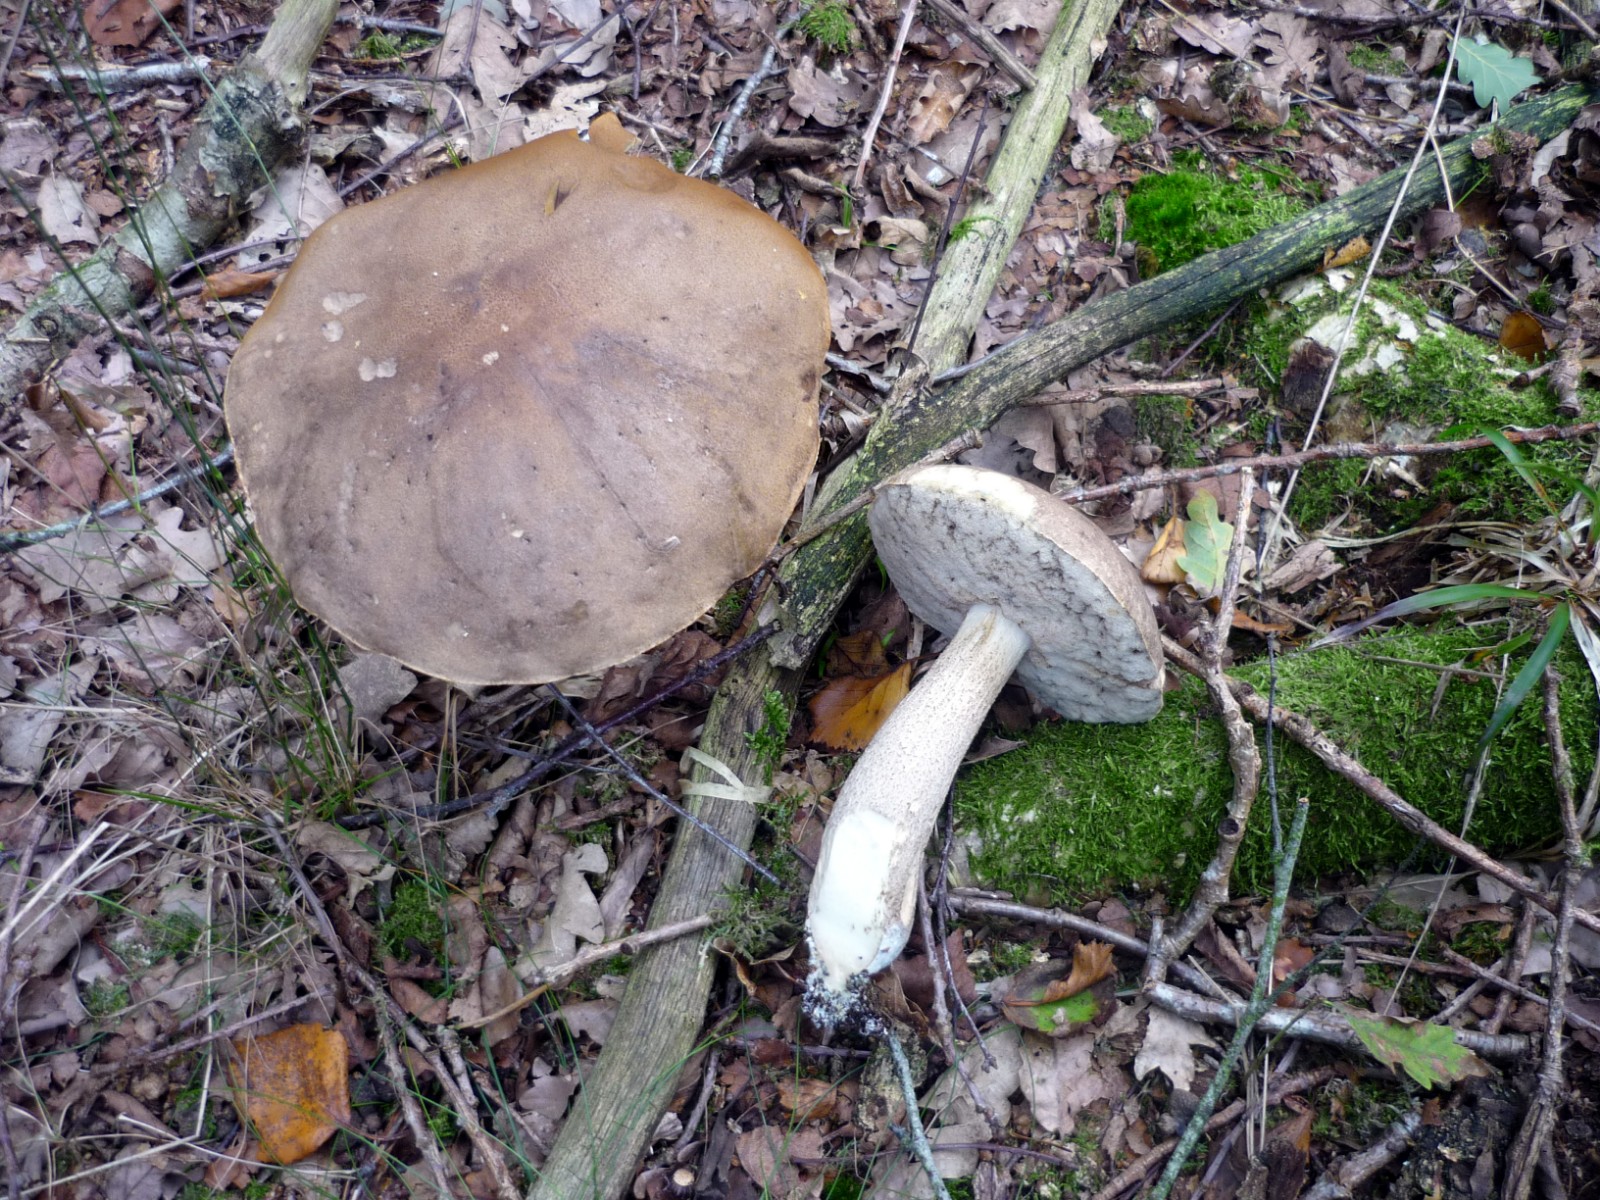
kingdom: Fungi
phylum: Basidiomycota
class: Agaricomycetes
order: Boletales
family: Boletaceae
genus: Leccinum
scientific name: Leccinum cyaneobasileucum
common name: almindelig skælrørhat
